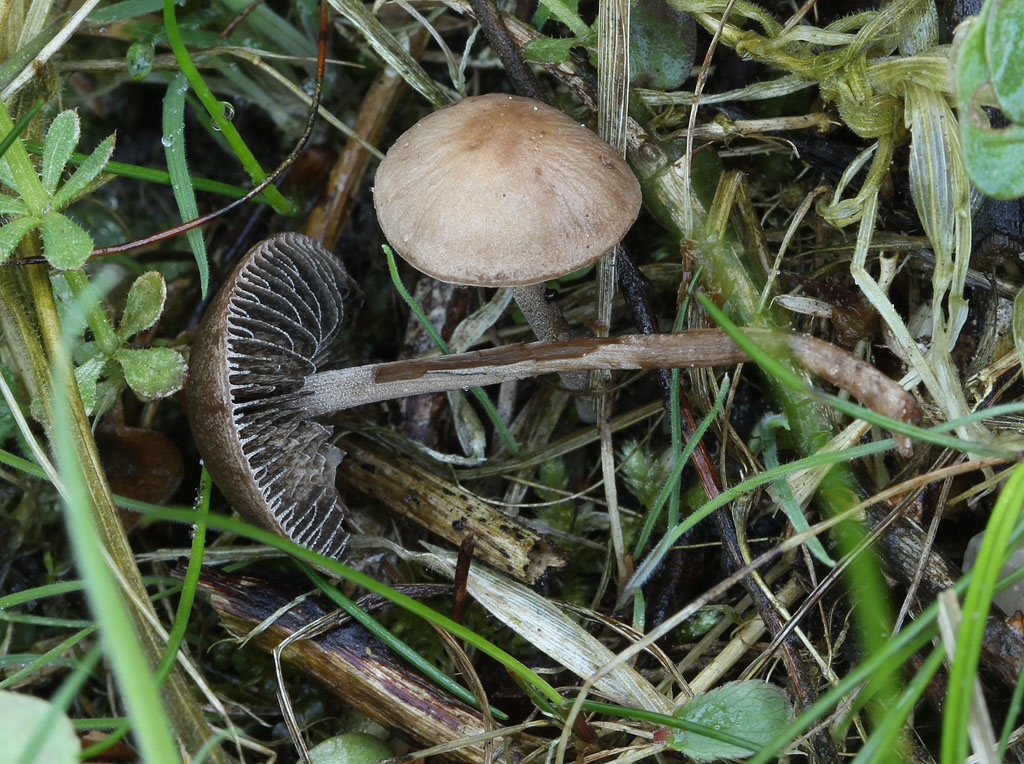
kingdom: Fungi
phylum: Basidiomycota
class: Agaricomycetes
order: Agaricales
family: Bolbitiaceae
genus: Panaeolus
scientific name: Panaeolus fimicola
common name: tidlig glanshat
